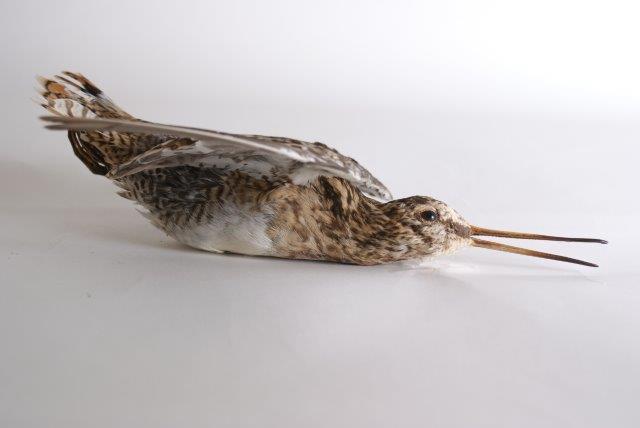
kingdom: Animalia
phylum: Chordata
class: Aves
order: Charadriiformes
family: Scolopacidae
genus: Gallinago
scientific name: Gallinago gallinago
